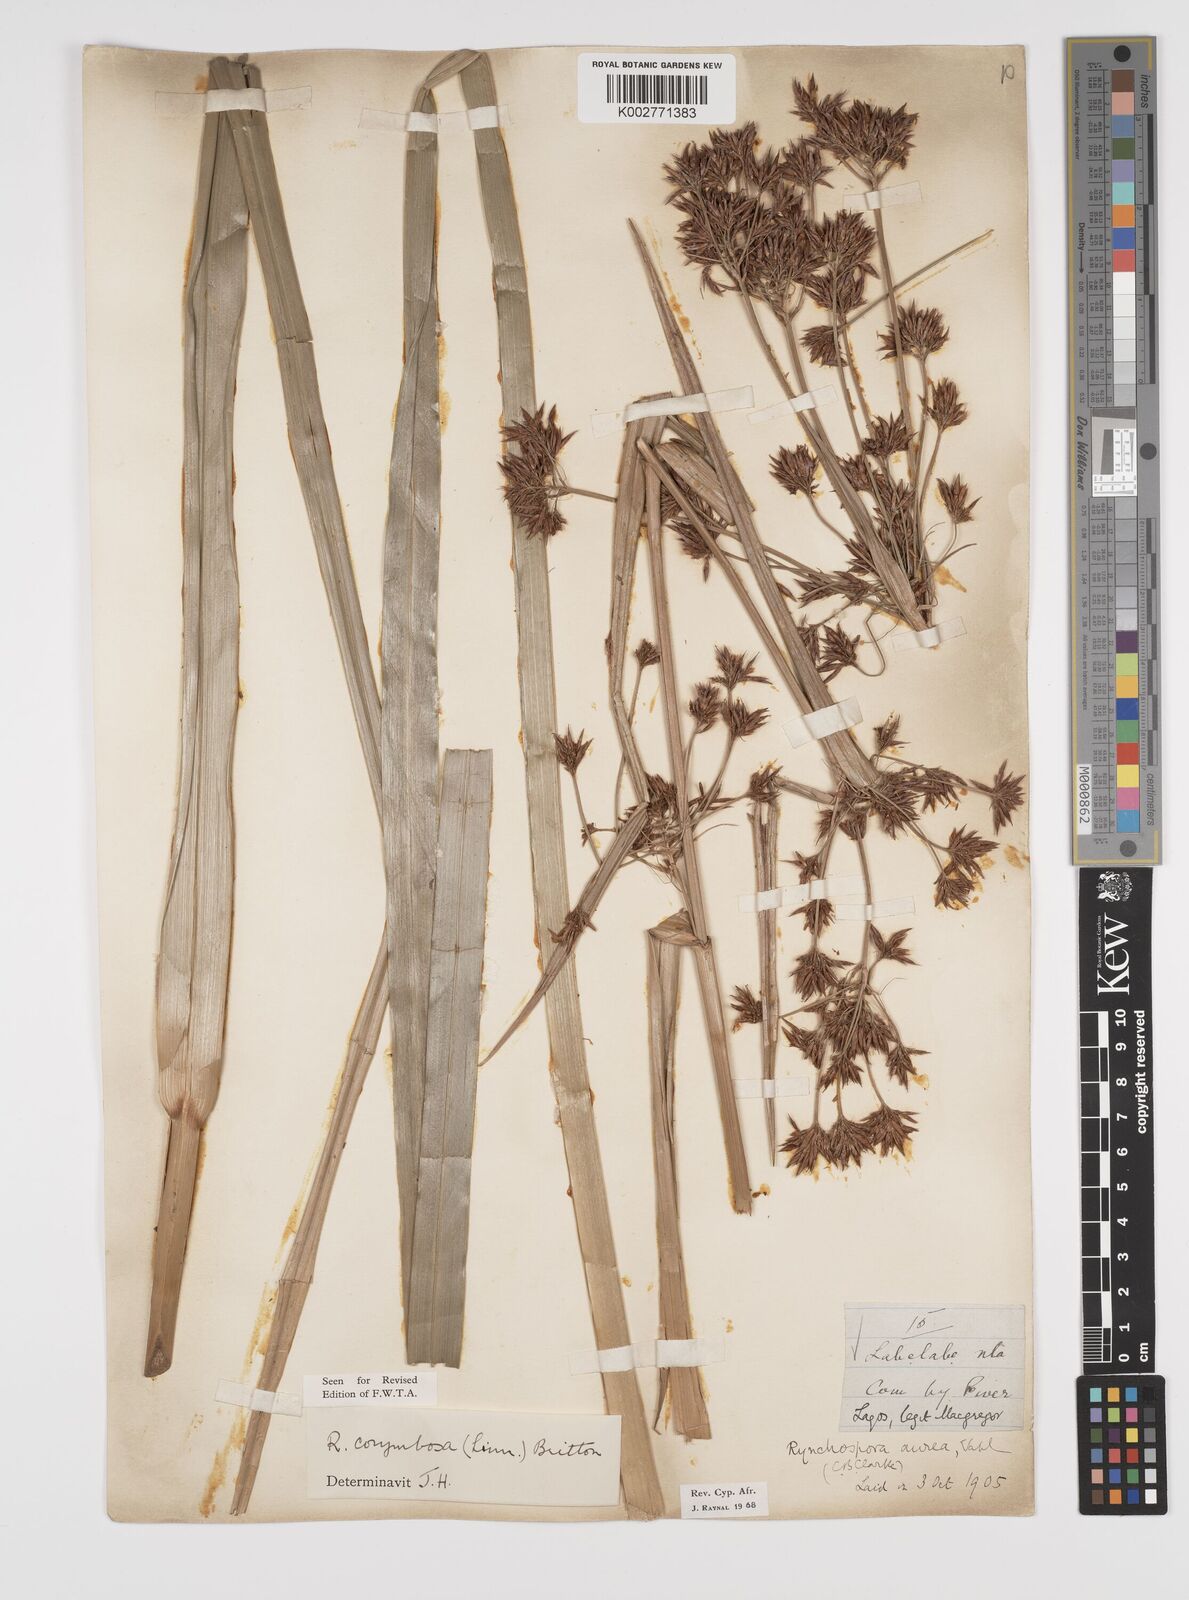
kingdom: Plantae
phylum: Tracheophyta
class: Liliopsida
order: Poales
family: Cyperaceae
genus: Rhynchospora
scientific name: Rhynchospora corymbosa
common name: Golden beak sedge
